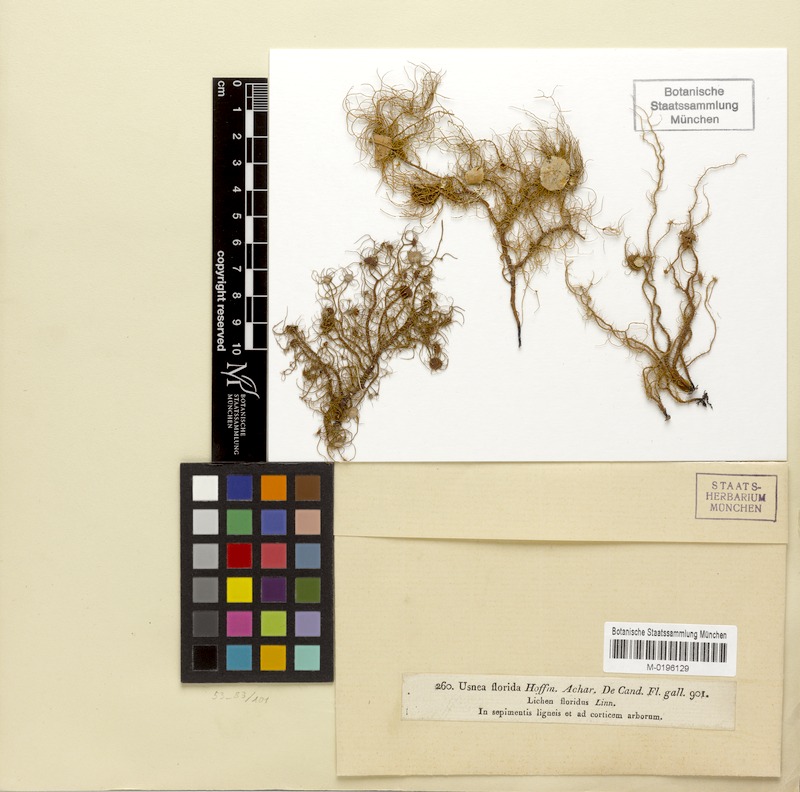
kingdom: Fungi
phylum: Ascomycota
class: Lecanoromycetes
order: Lecanorales
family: Parmeliaceae
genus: Usnea
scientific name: Usnea florida
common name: Witches' whiskers lichen
